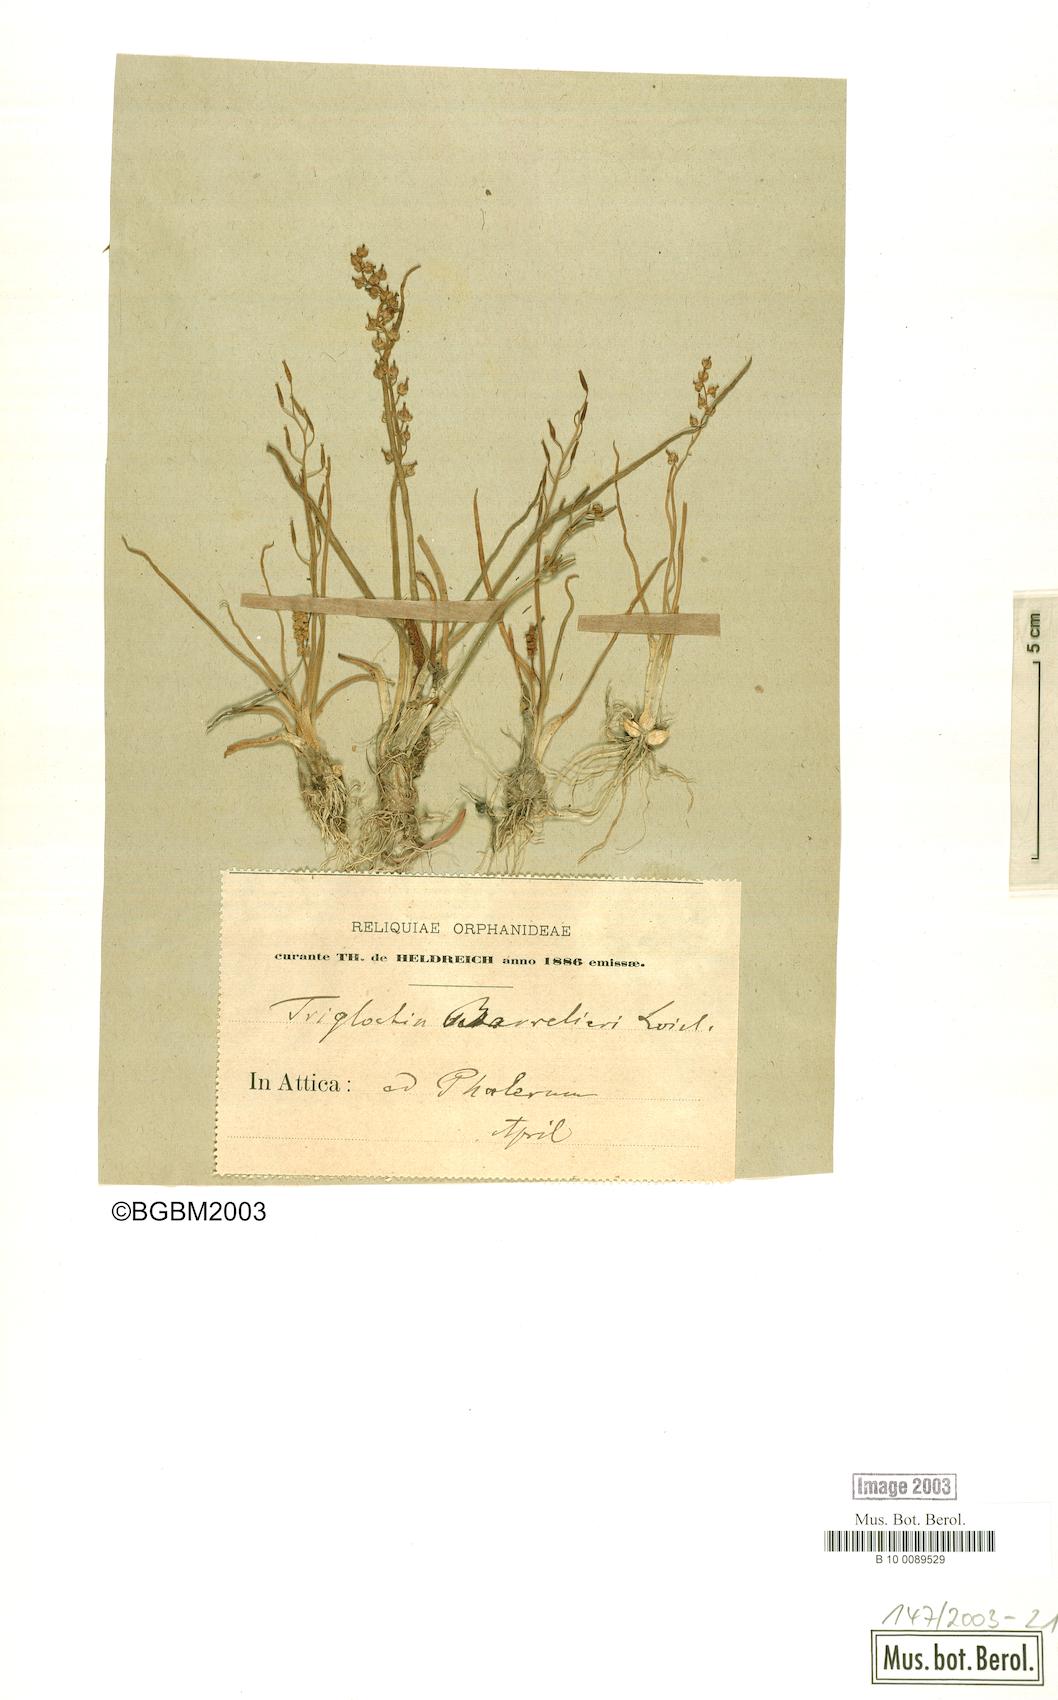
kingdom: Plantae
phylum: Tracheophyta
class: Liliopsida
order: Alismatales
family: Juncaginaceae
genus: Triglochin
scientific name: Triglochin bulbosa
